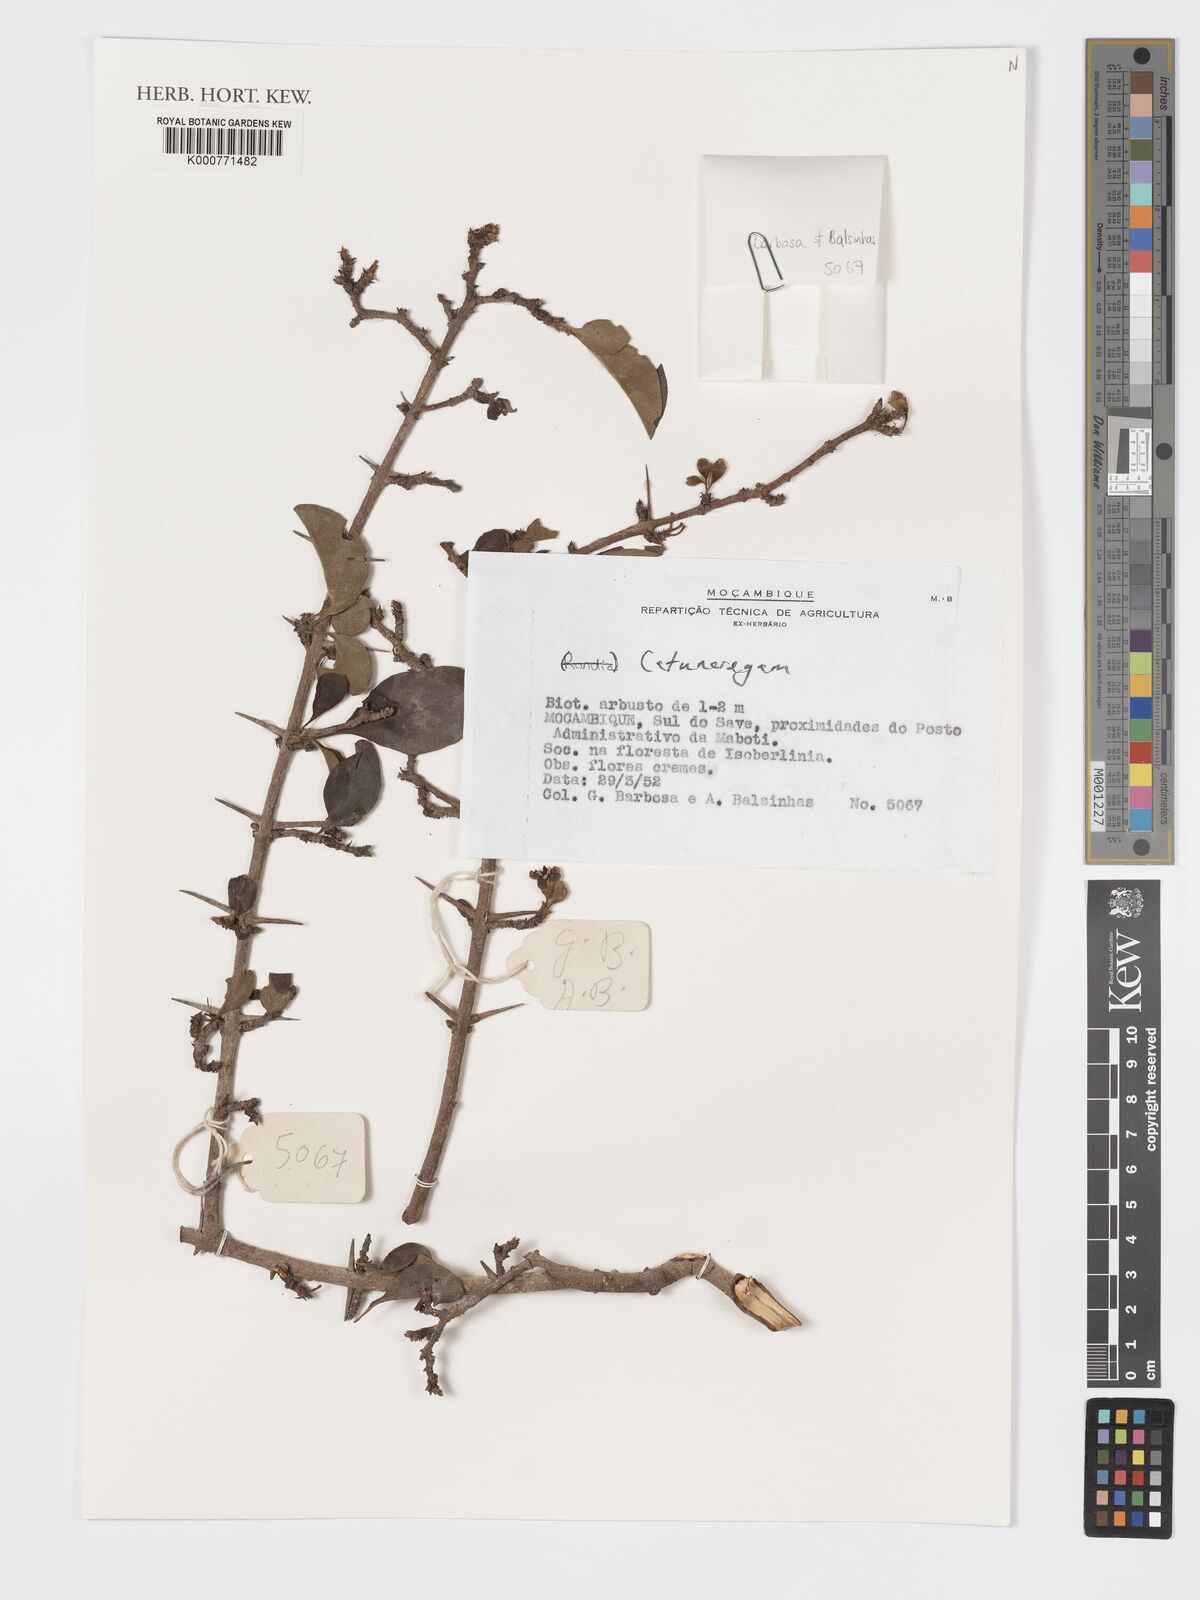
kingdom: Plantae
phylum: Tracheophyta
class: Magnoliopsida
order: Gentianales
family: Rubiaceae
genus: Catunaregam
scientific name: Catunaregam
